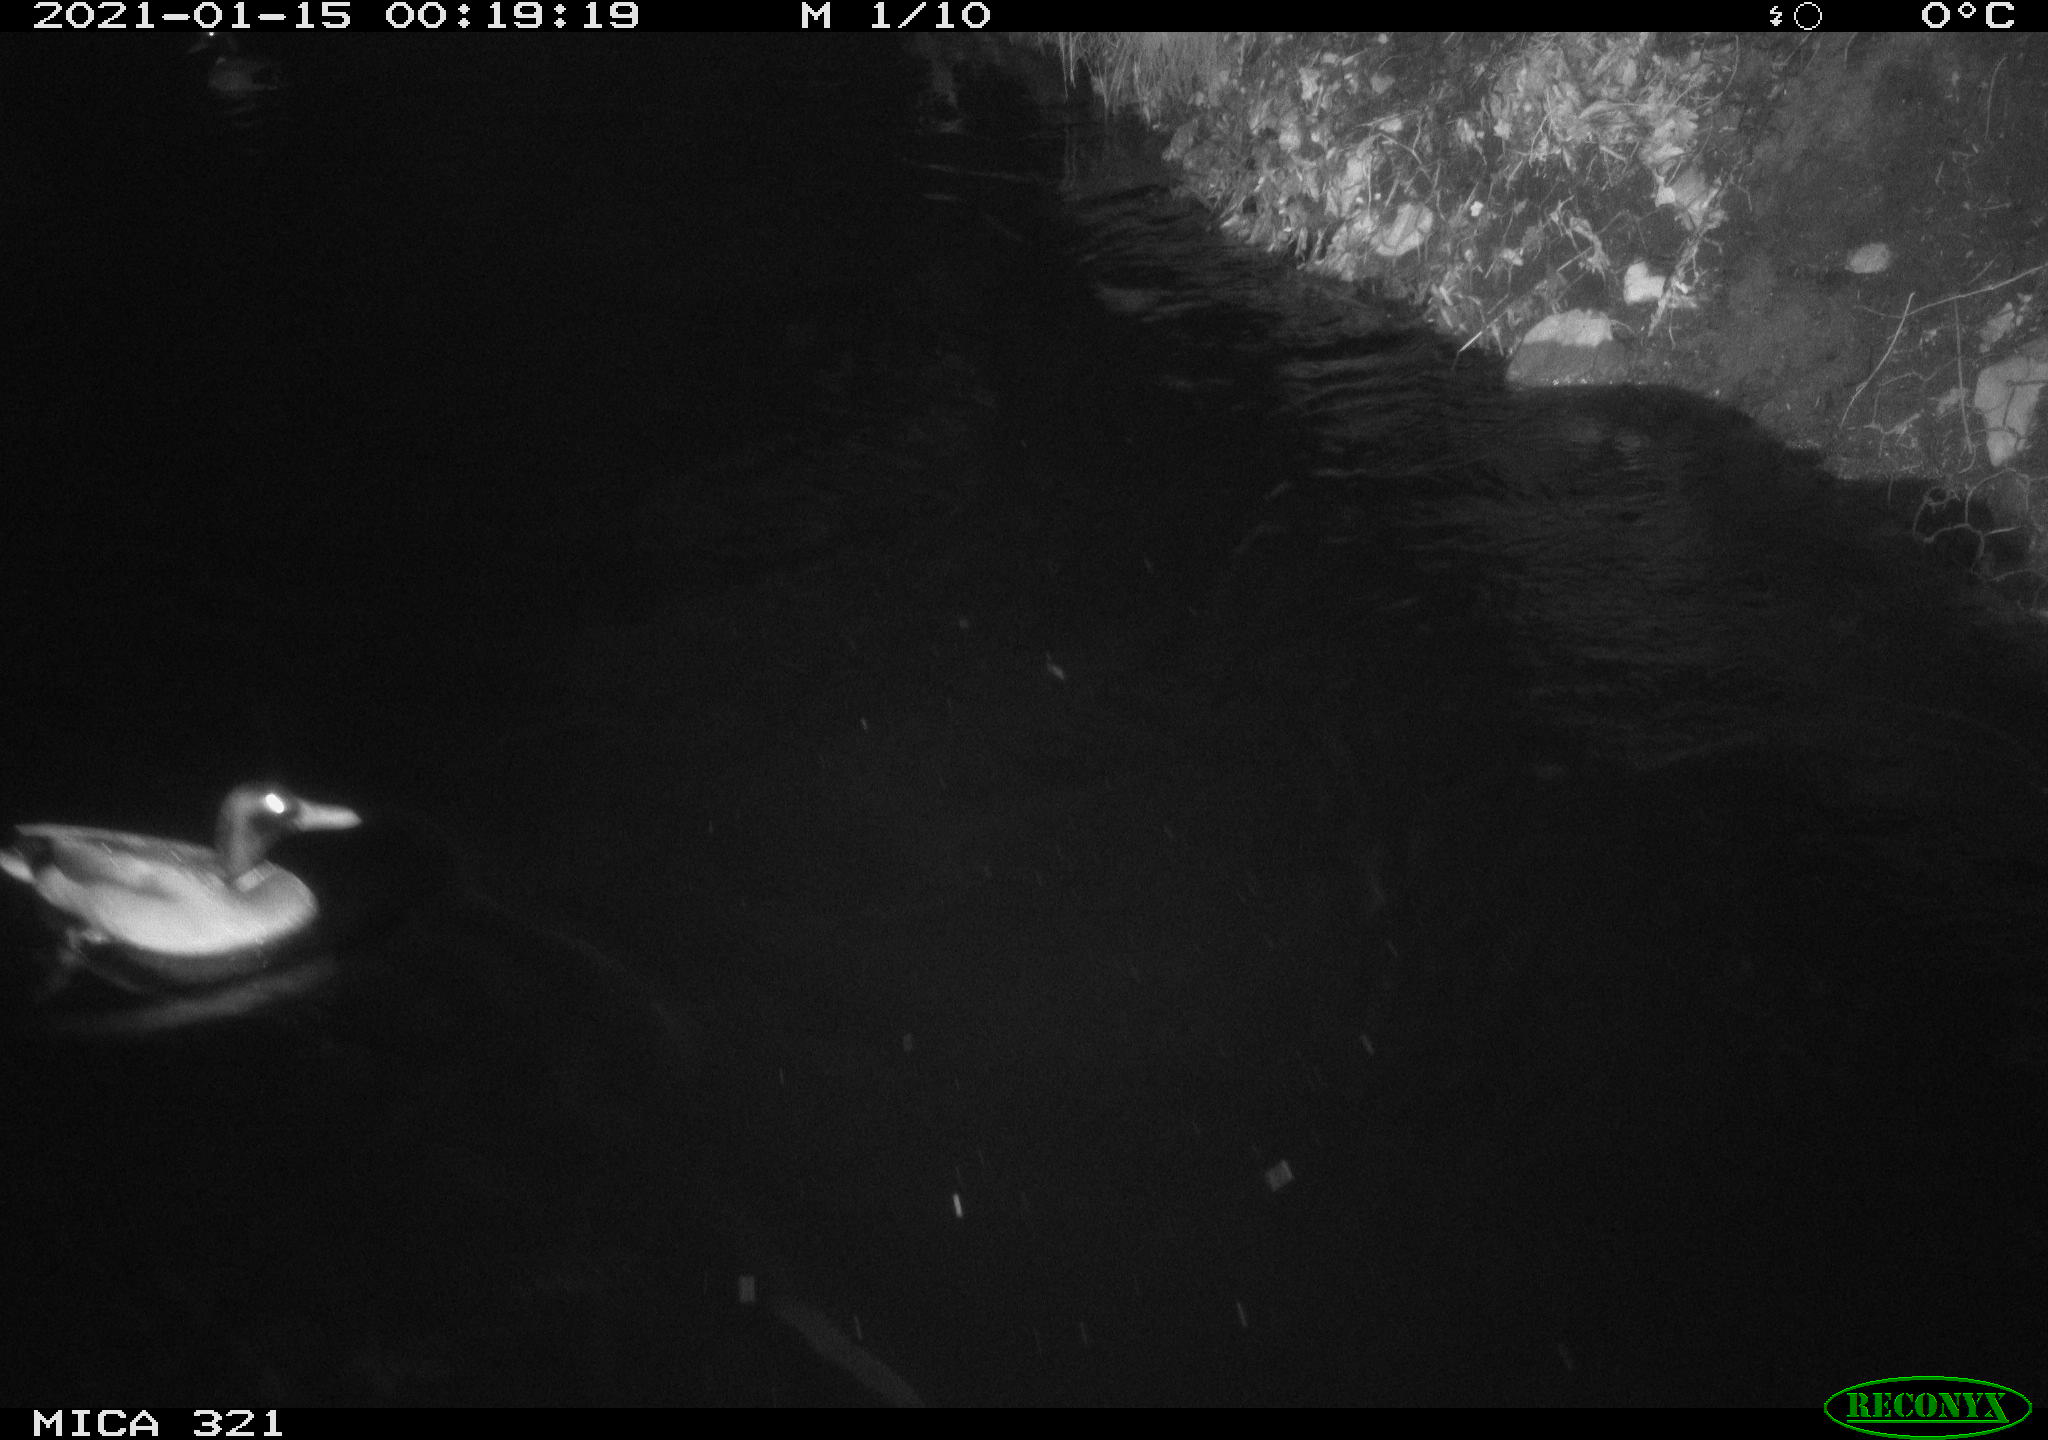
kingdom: Animalia
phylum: Chordata
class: Aves
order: Anseriformes
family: Anatidae
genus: Anas
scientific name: Anas platyrhynchos
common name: Mallard
